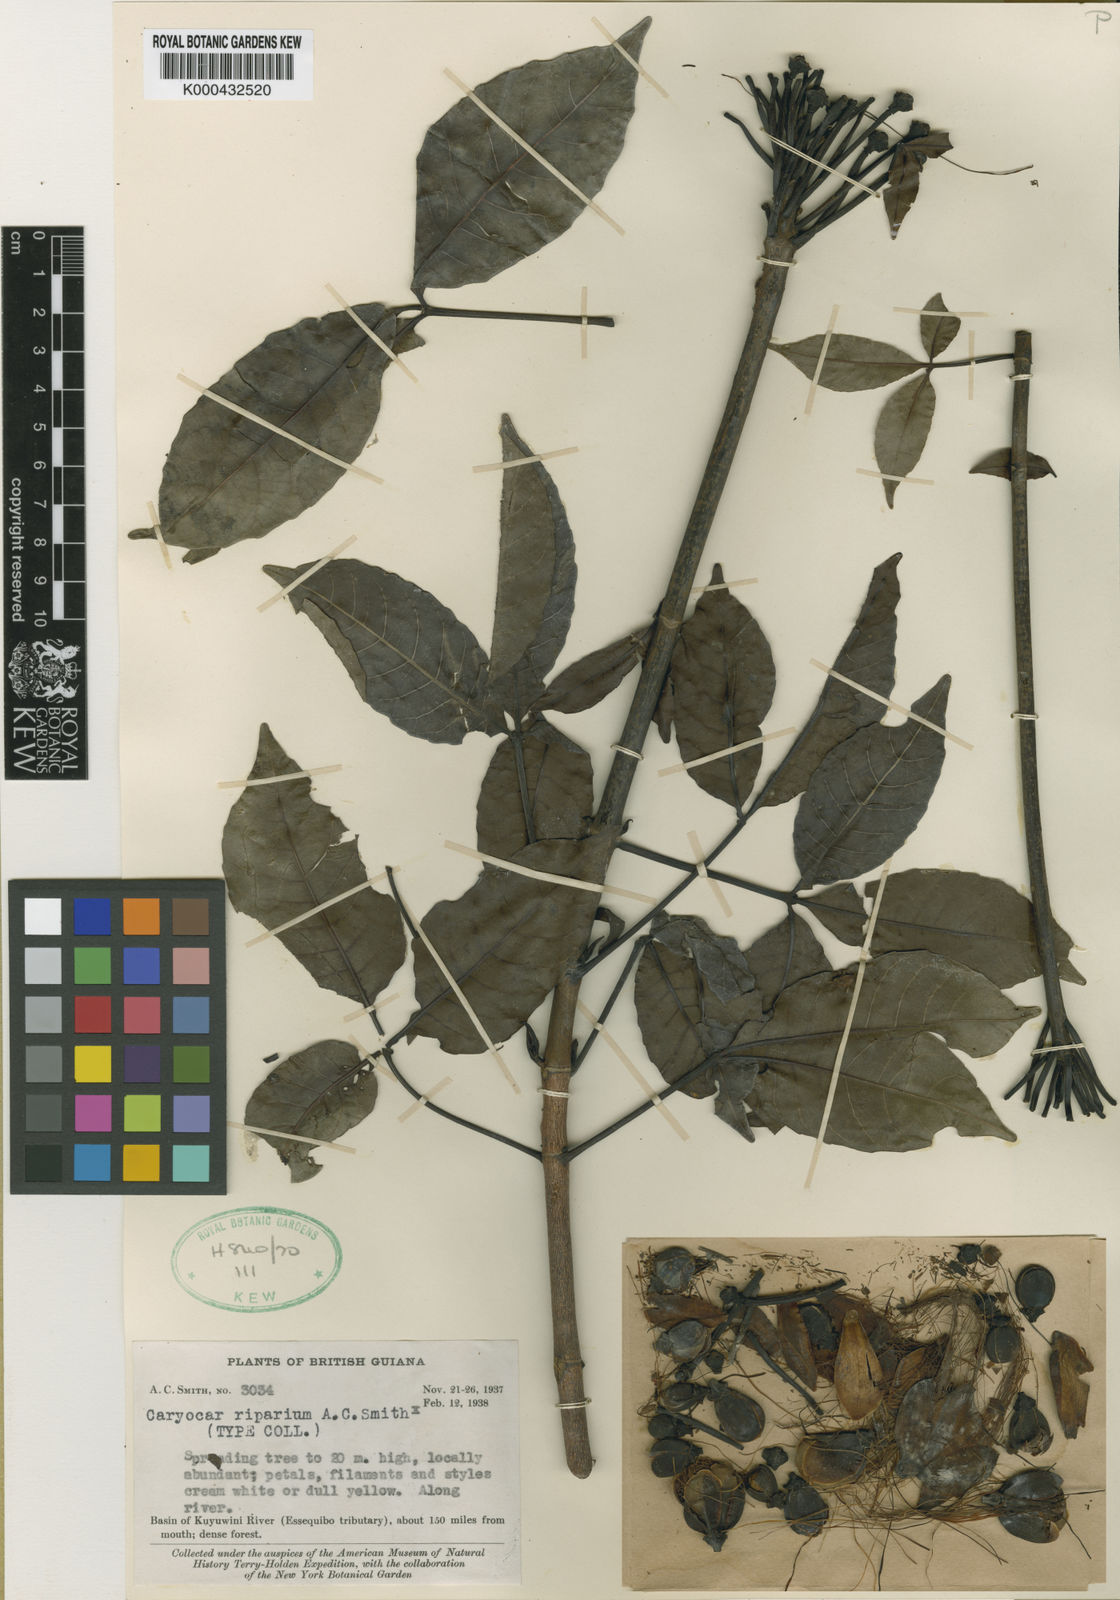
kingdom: Plantae
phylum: Tracheophyta
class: Magnoliopsida
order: Malpighiales
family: Caryocaraceae
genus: Caryocar
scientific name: Caryocar microcarpum
